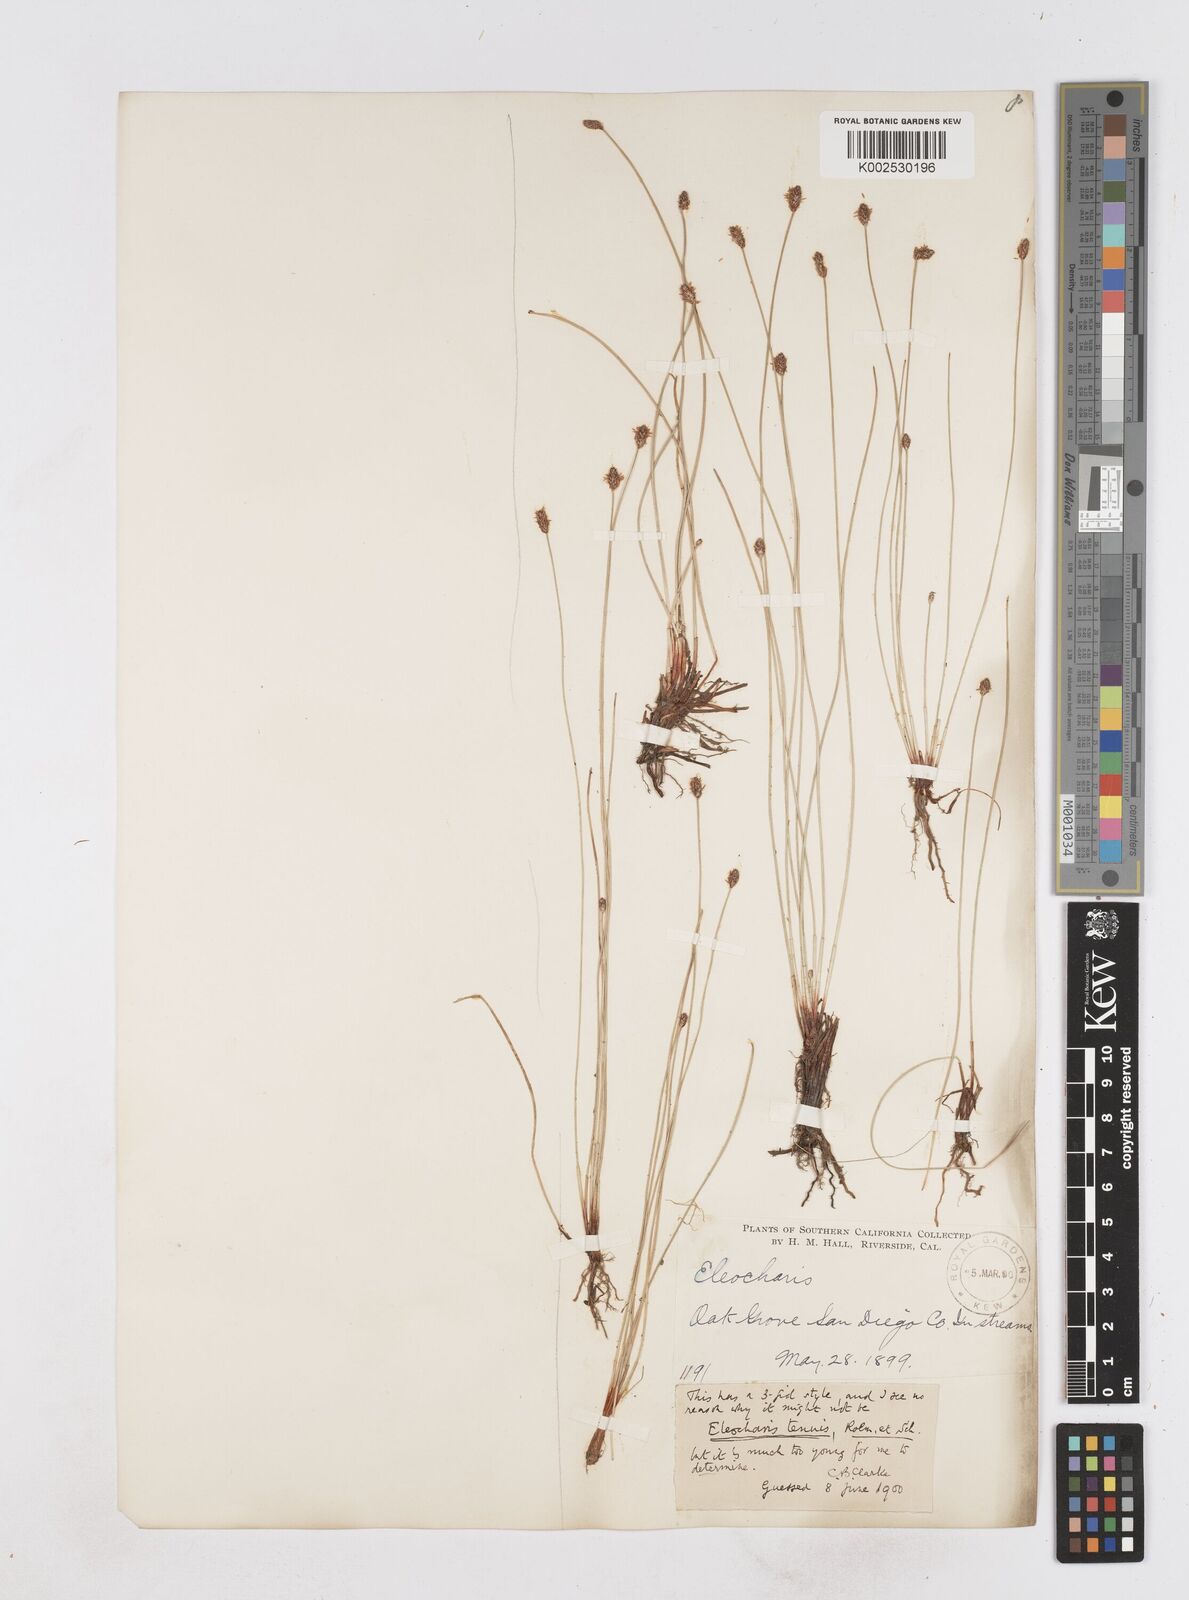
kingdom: Plantae
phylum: Tracheophyta
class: Liliopsida
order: Poales
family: Cyperaceae
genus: Eleocharis
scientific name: Eleocharis tenuis
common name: Dog's hair
